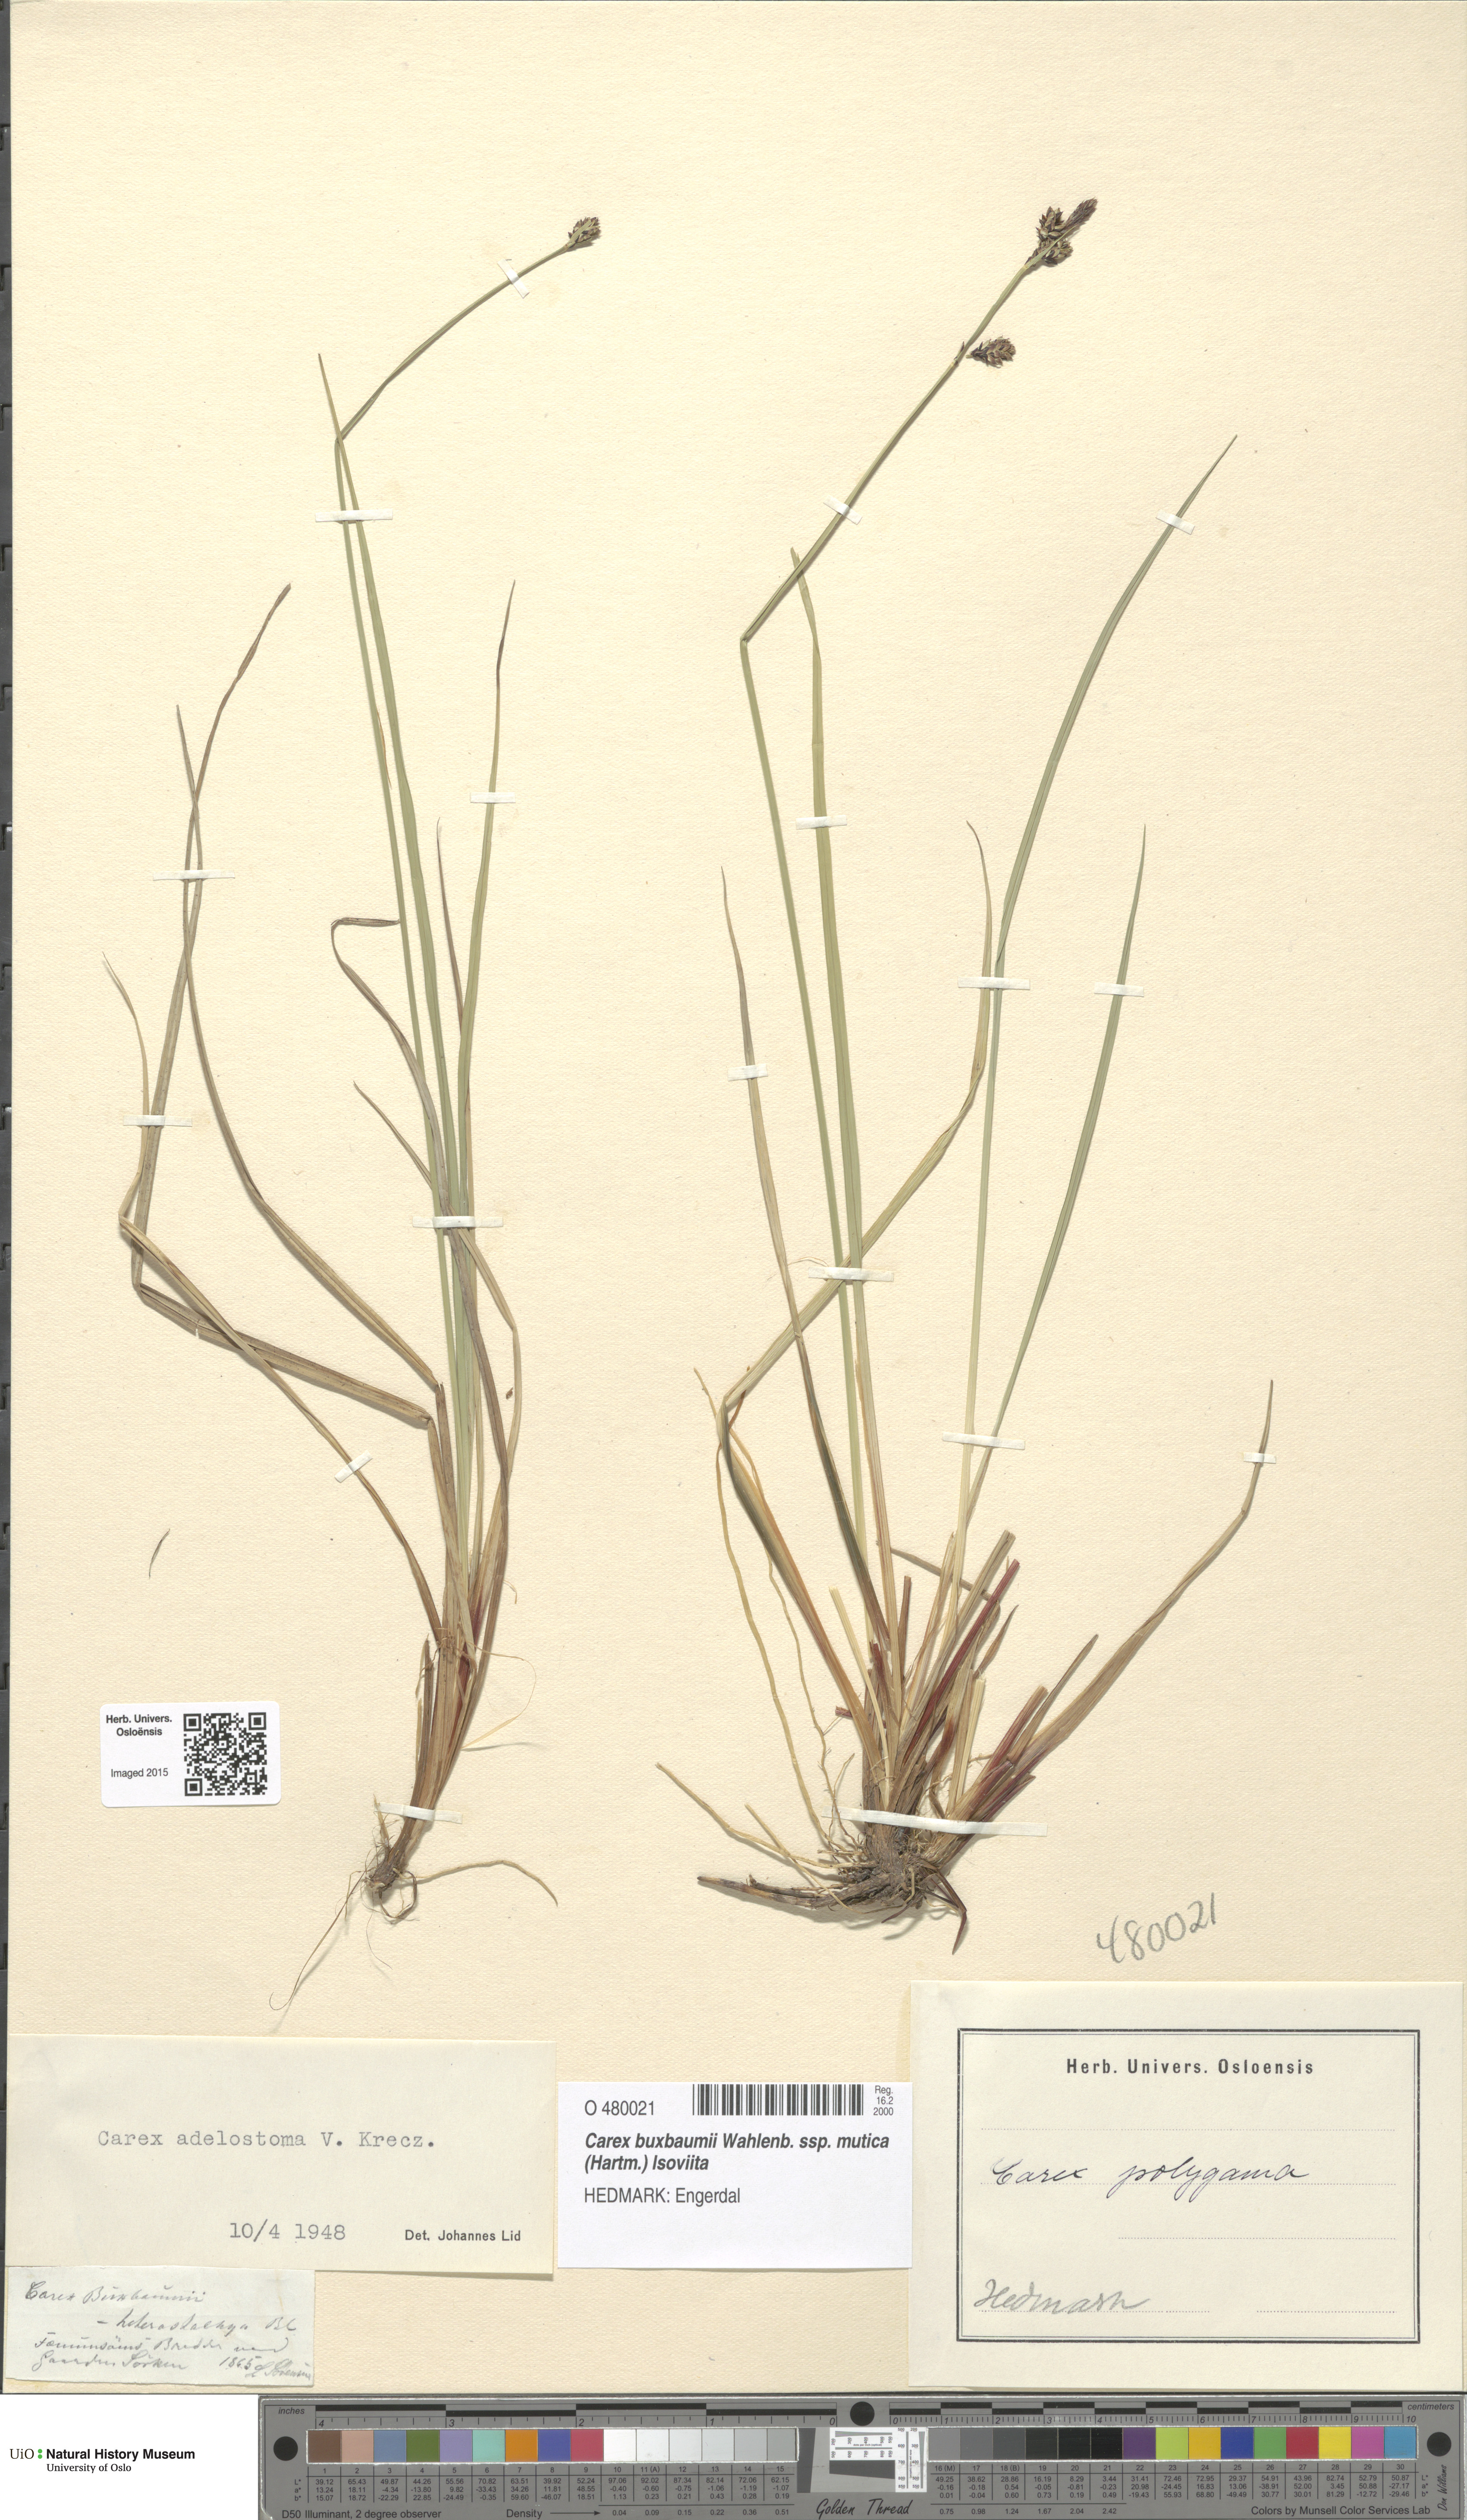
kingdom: Plantae
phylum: Tracheophyta
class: Liliopsida
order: Poales
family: Cyperaceae
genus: Carex
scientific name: Carex adelostoma
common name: Circumpolar sedge
